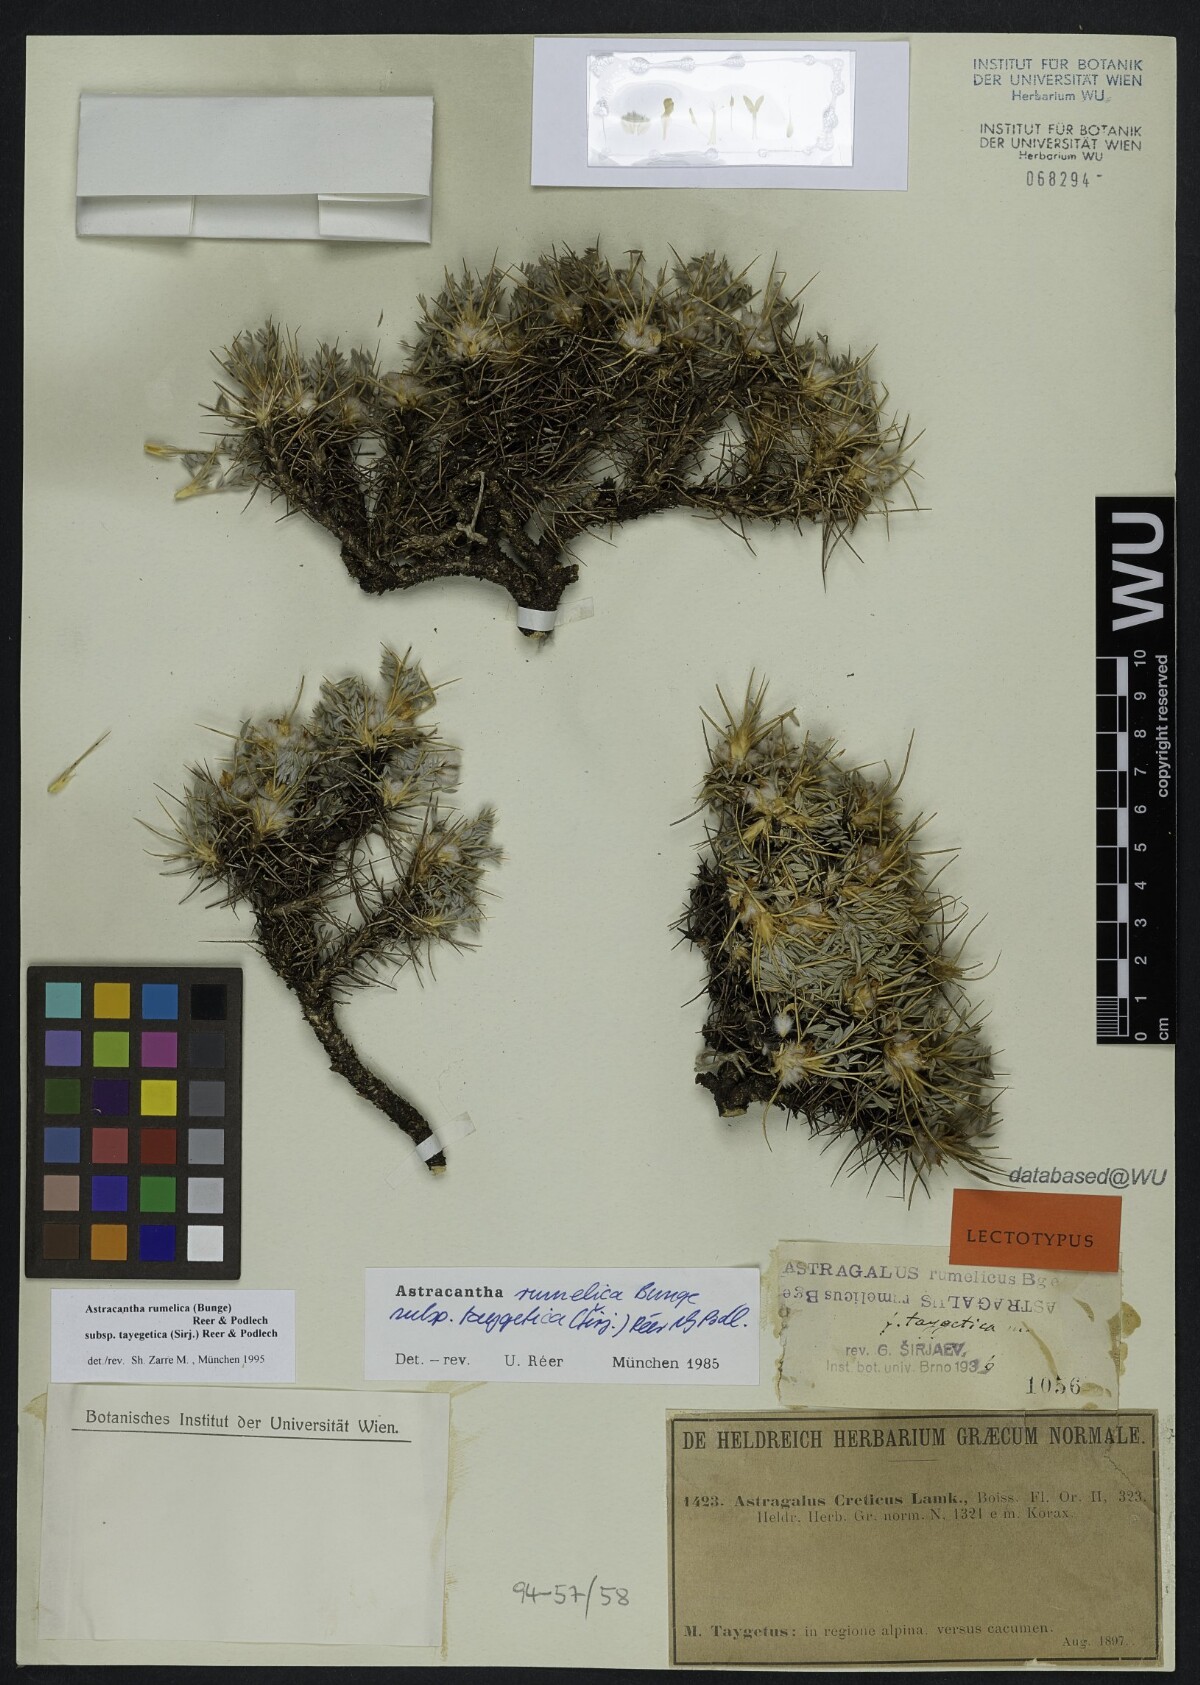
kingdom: Plantae
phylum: Tracheophyta
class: Magnoliopsida
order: Fabales
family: Fabaceae
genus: Astragalus
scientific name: Astragalus rumelicus
